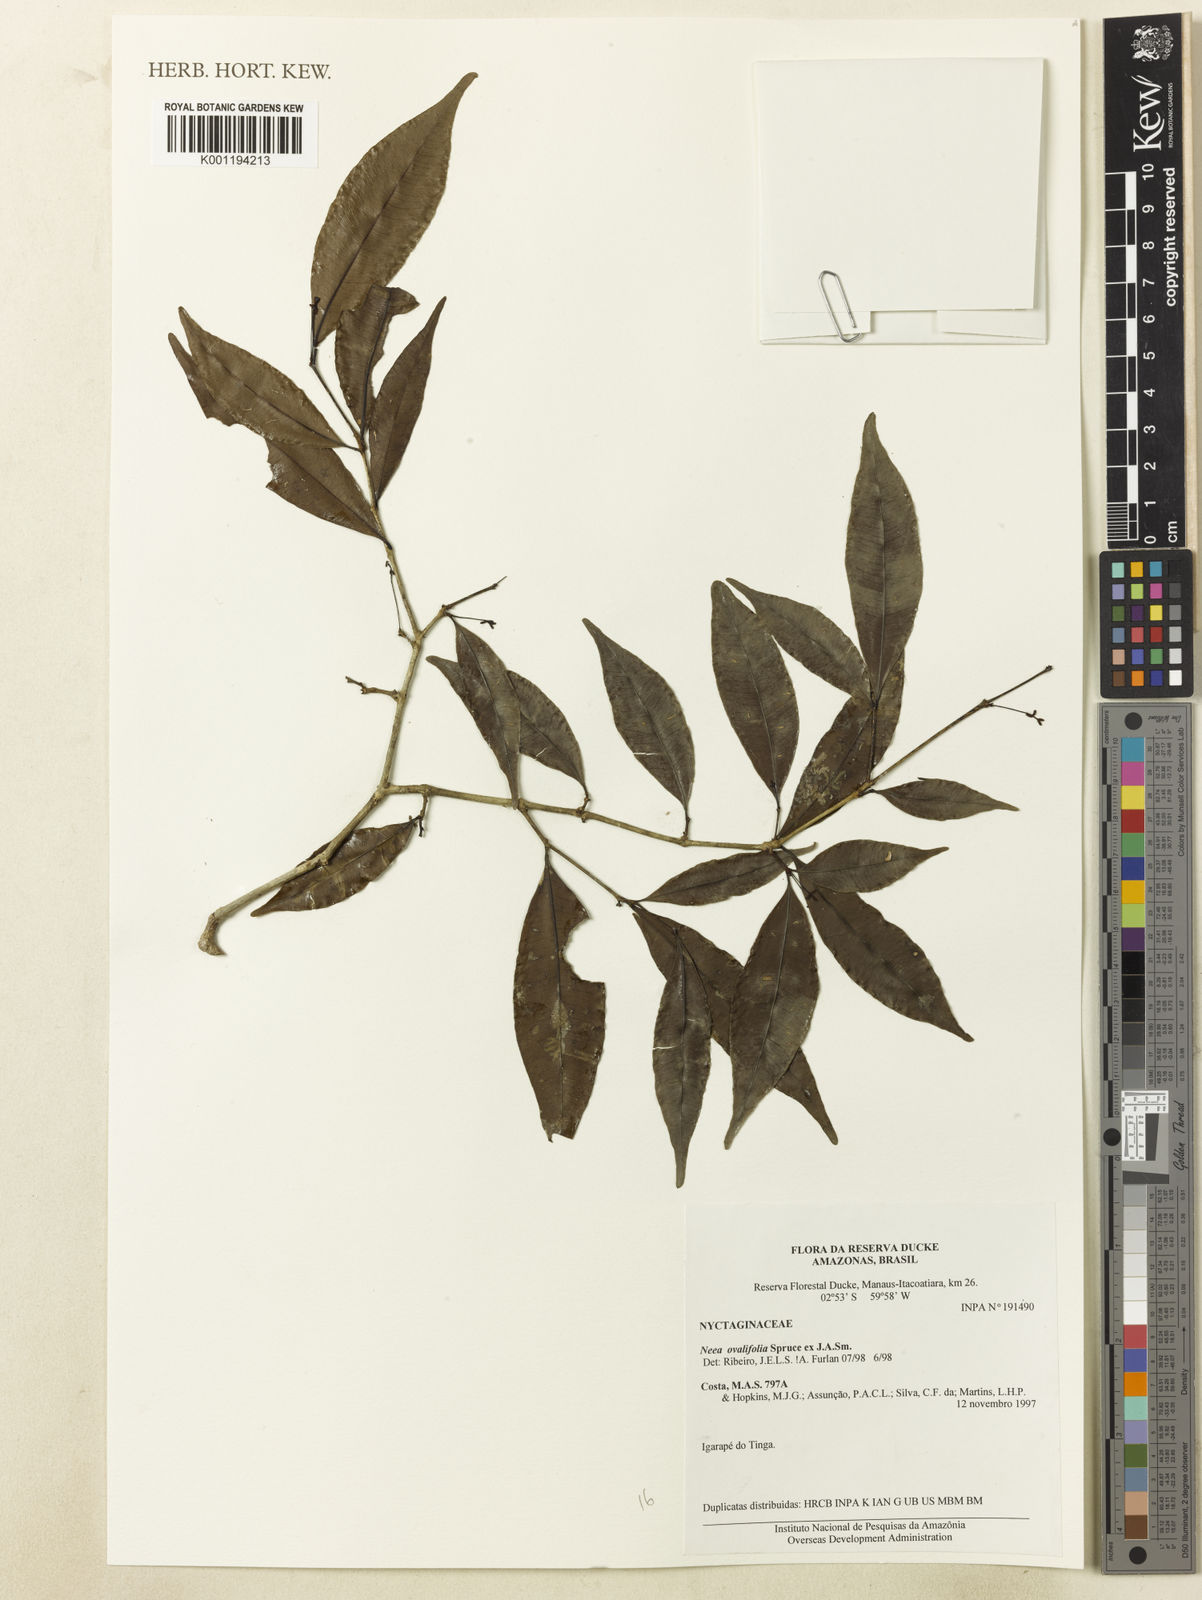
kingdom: Plantae
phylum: Tracheophyta
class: Magnoliopsida
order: Caryophyllales
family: Nyctaginaceae
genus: Neea
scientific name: Neea ovalifolia
